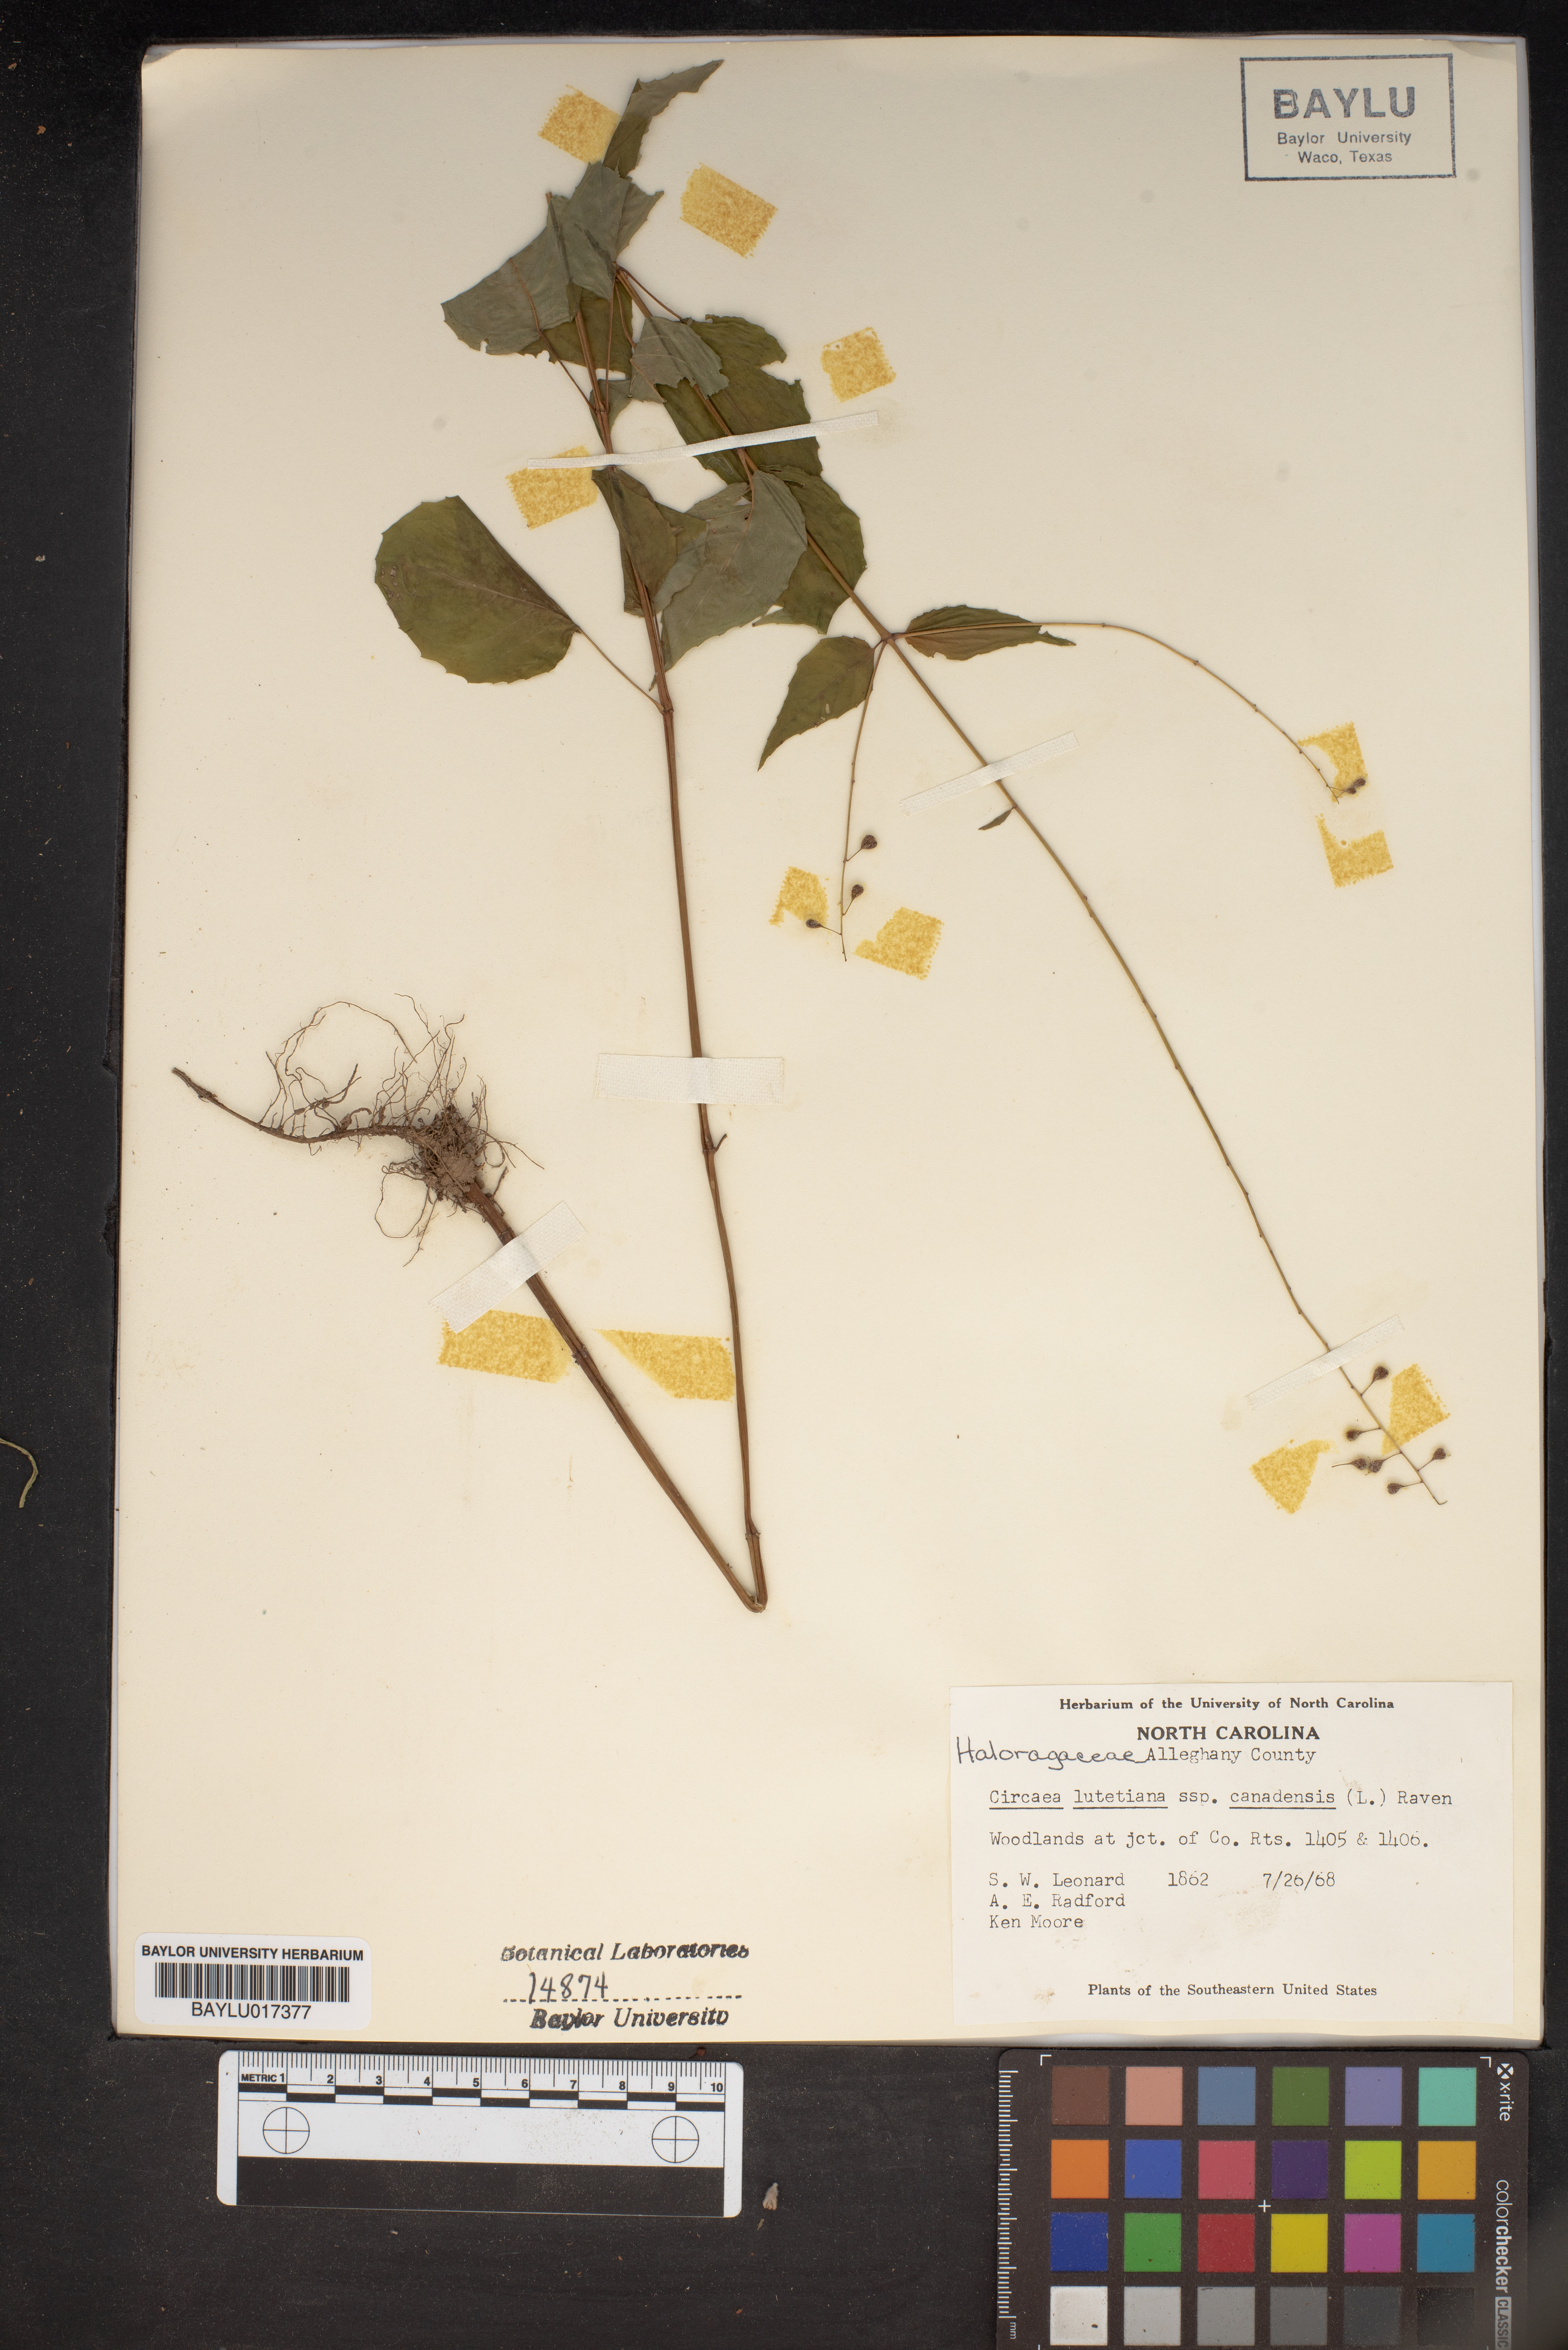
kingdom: Plantae
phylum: Tracheophyta
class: Magnoliopsida
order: Myrtales
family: Onagraceae
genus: Circaea
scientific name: Circaea lutetiana
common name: Enchanter's-nightshade
